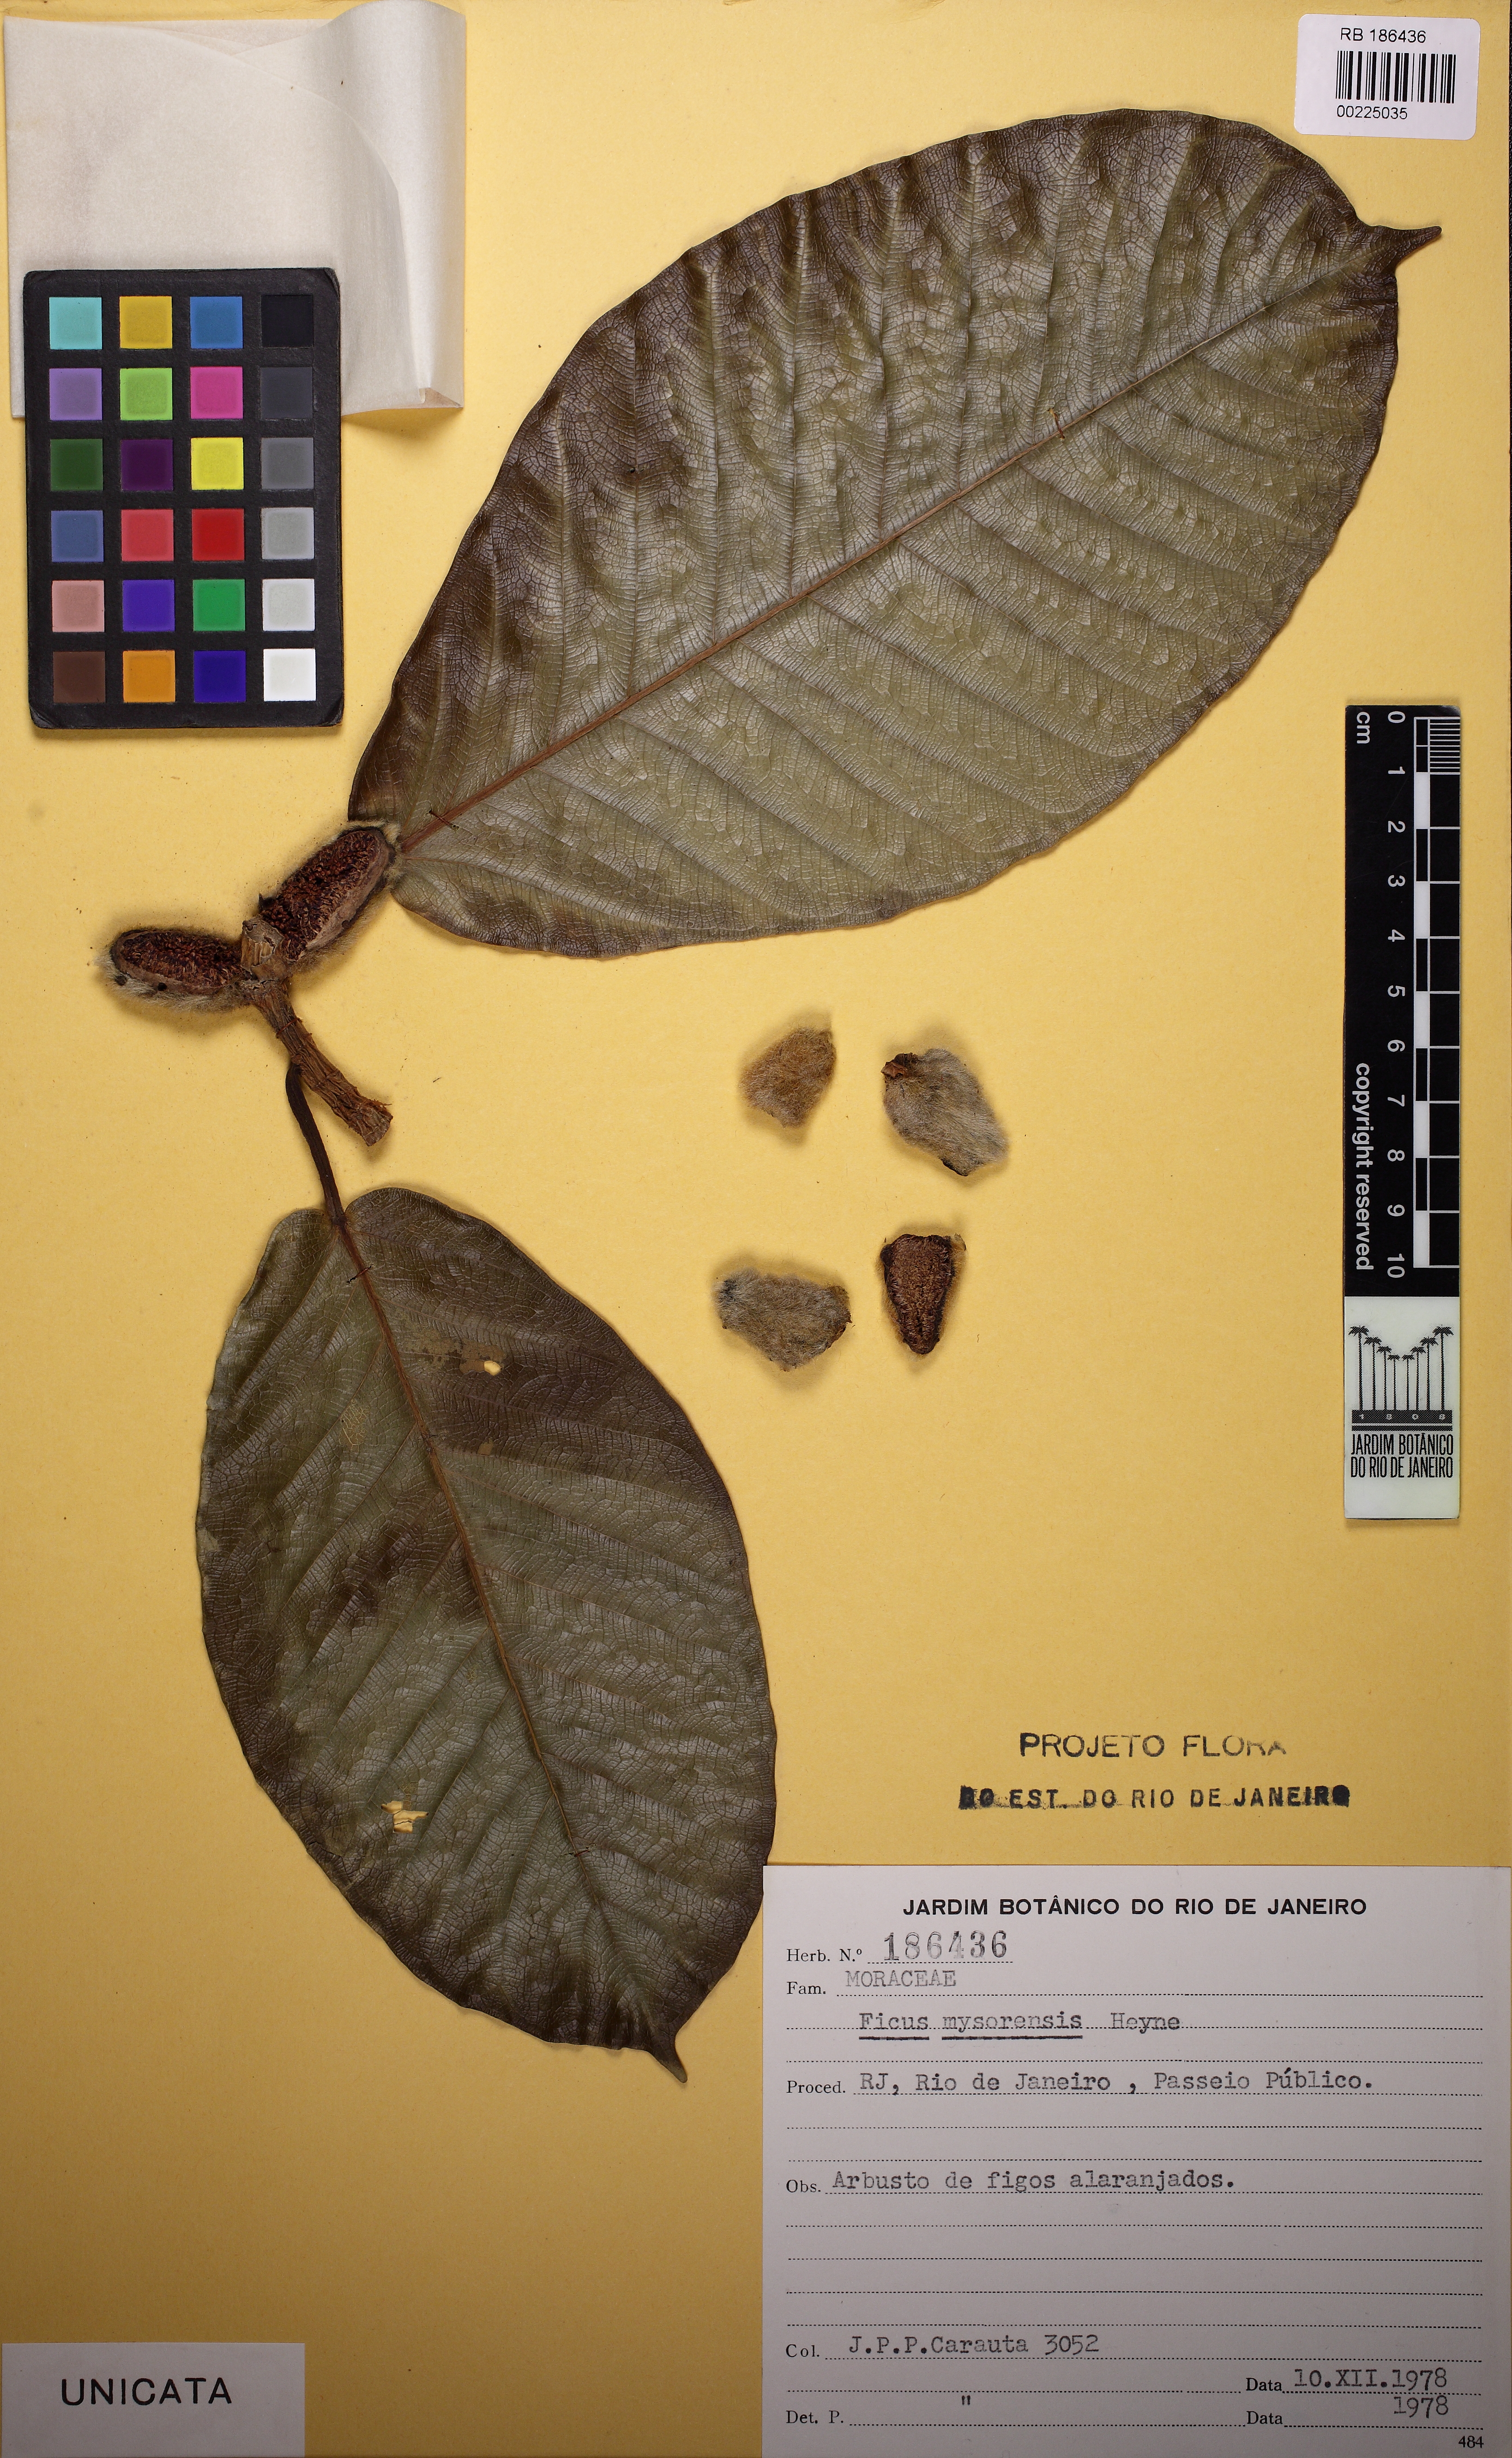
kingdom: Plantae
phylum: Tracheophyta
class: Magnoliopsida
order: Rosales
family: Moraceae
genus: Ficus
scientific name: Ficus drupacea
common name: Drupe fig
